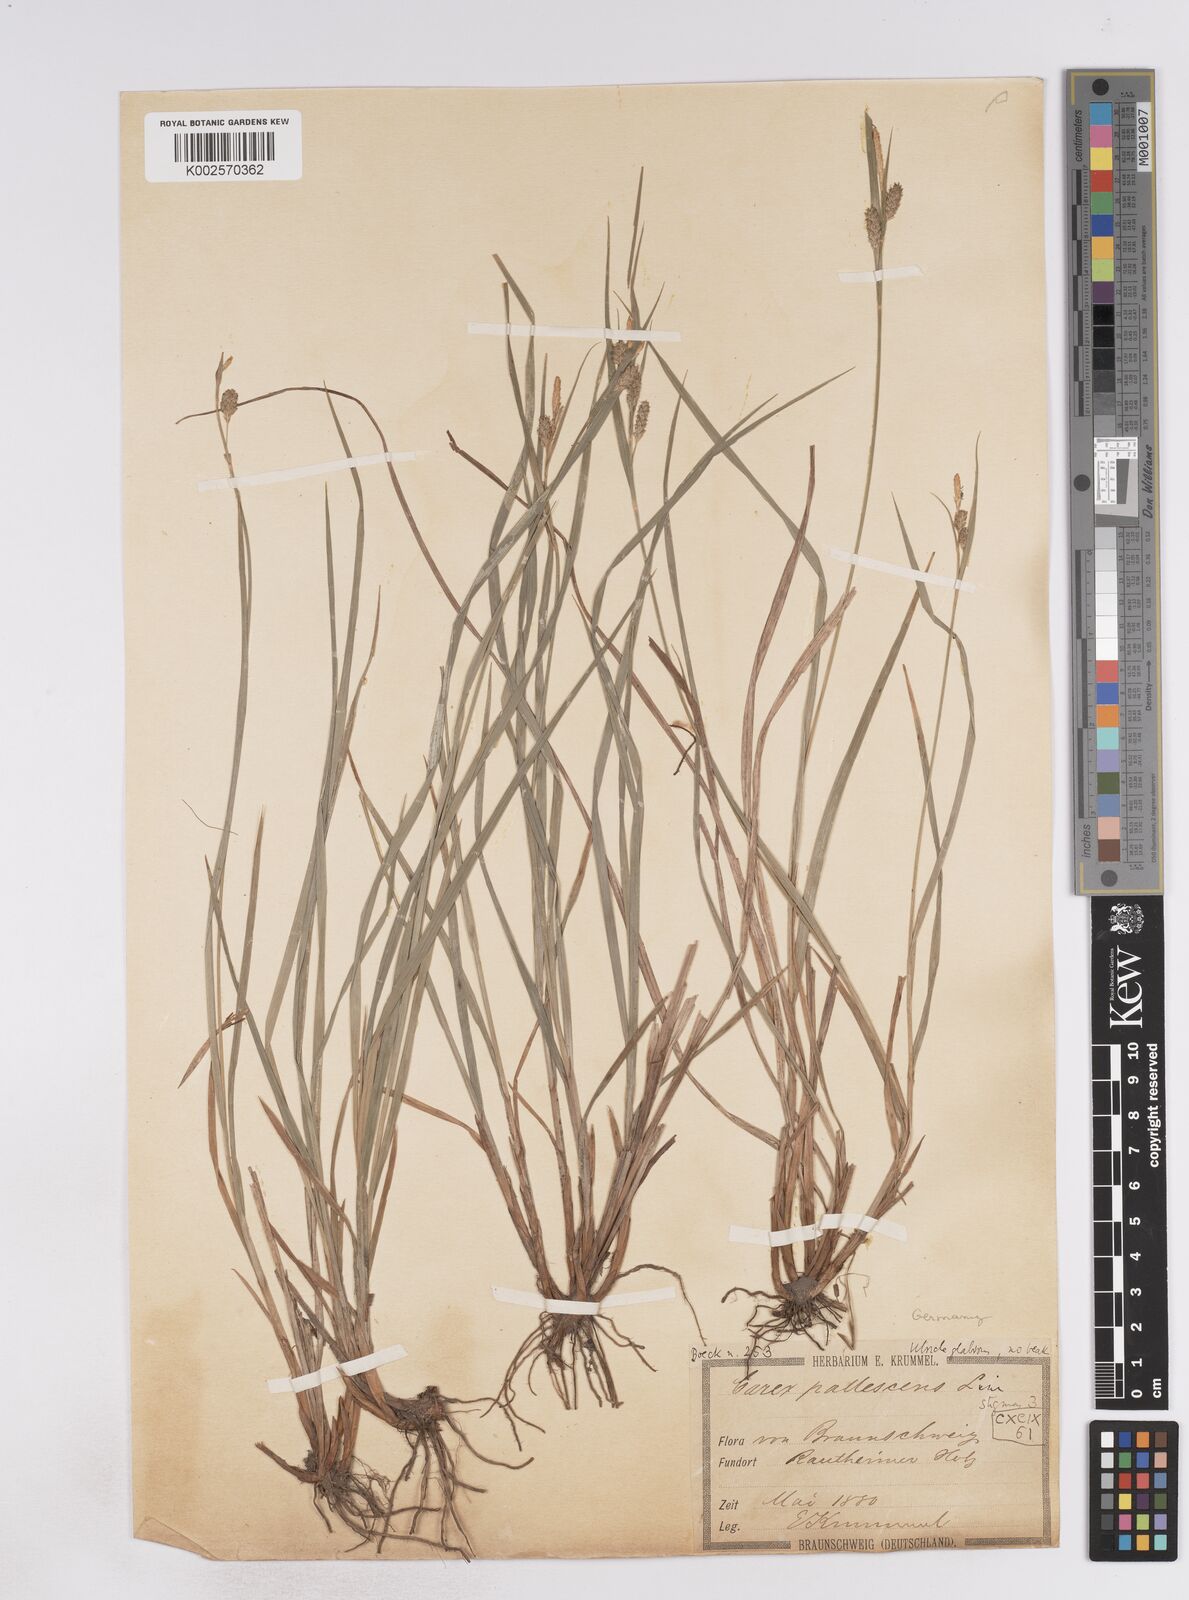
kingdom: Plantae
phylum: Tracheophyta
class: Liliopsida
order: Poales
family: Cyperaceae
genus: Carex
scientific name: Carex pallescens
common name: Pale sedge
